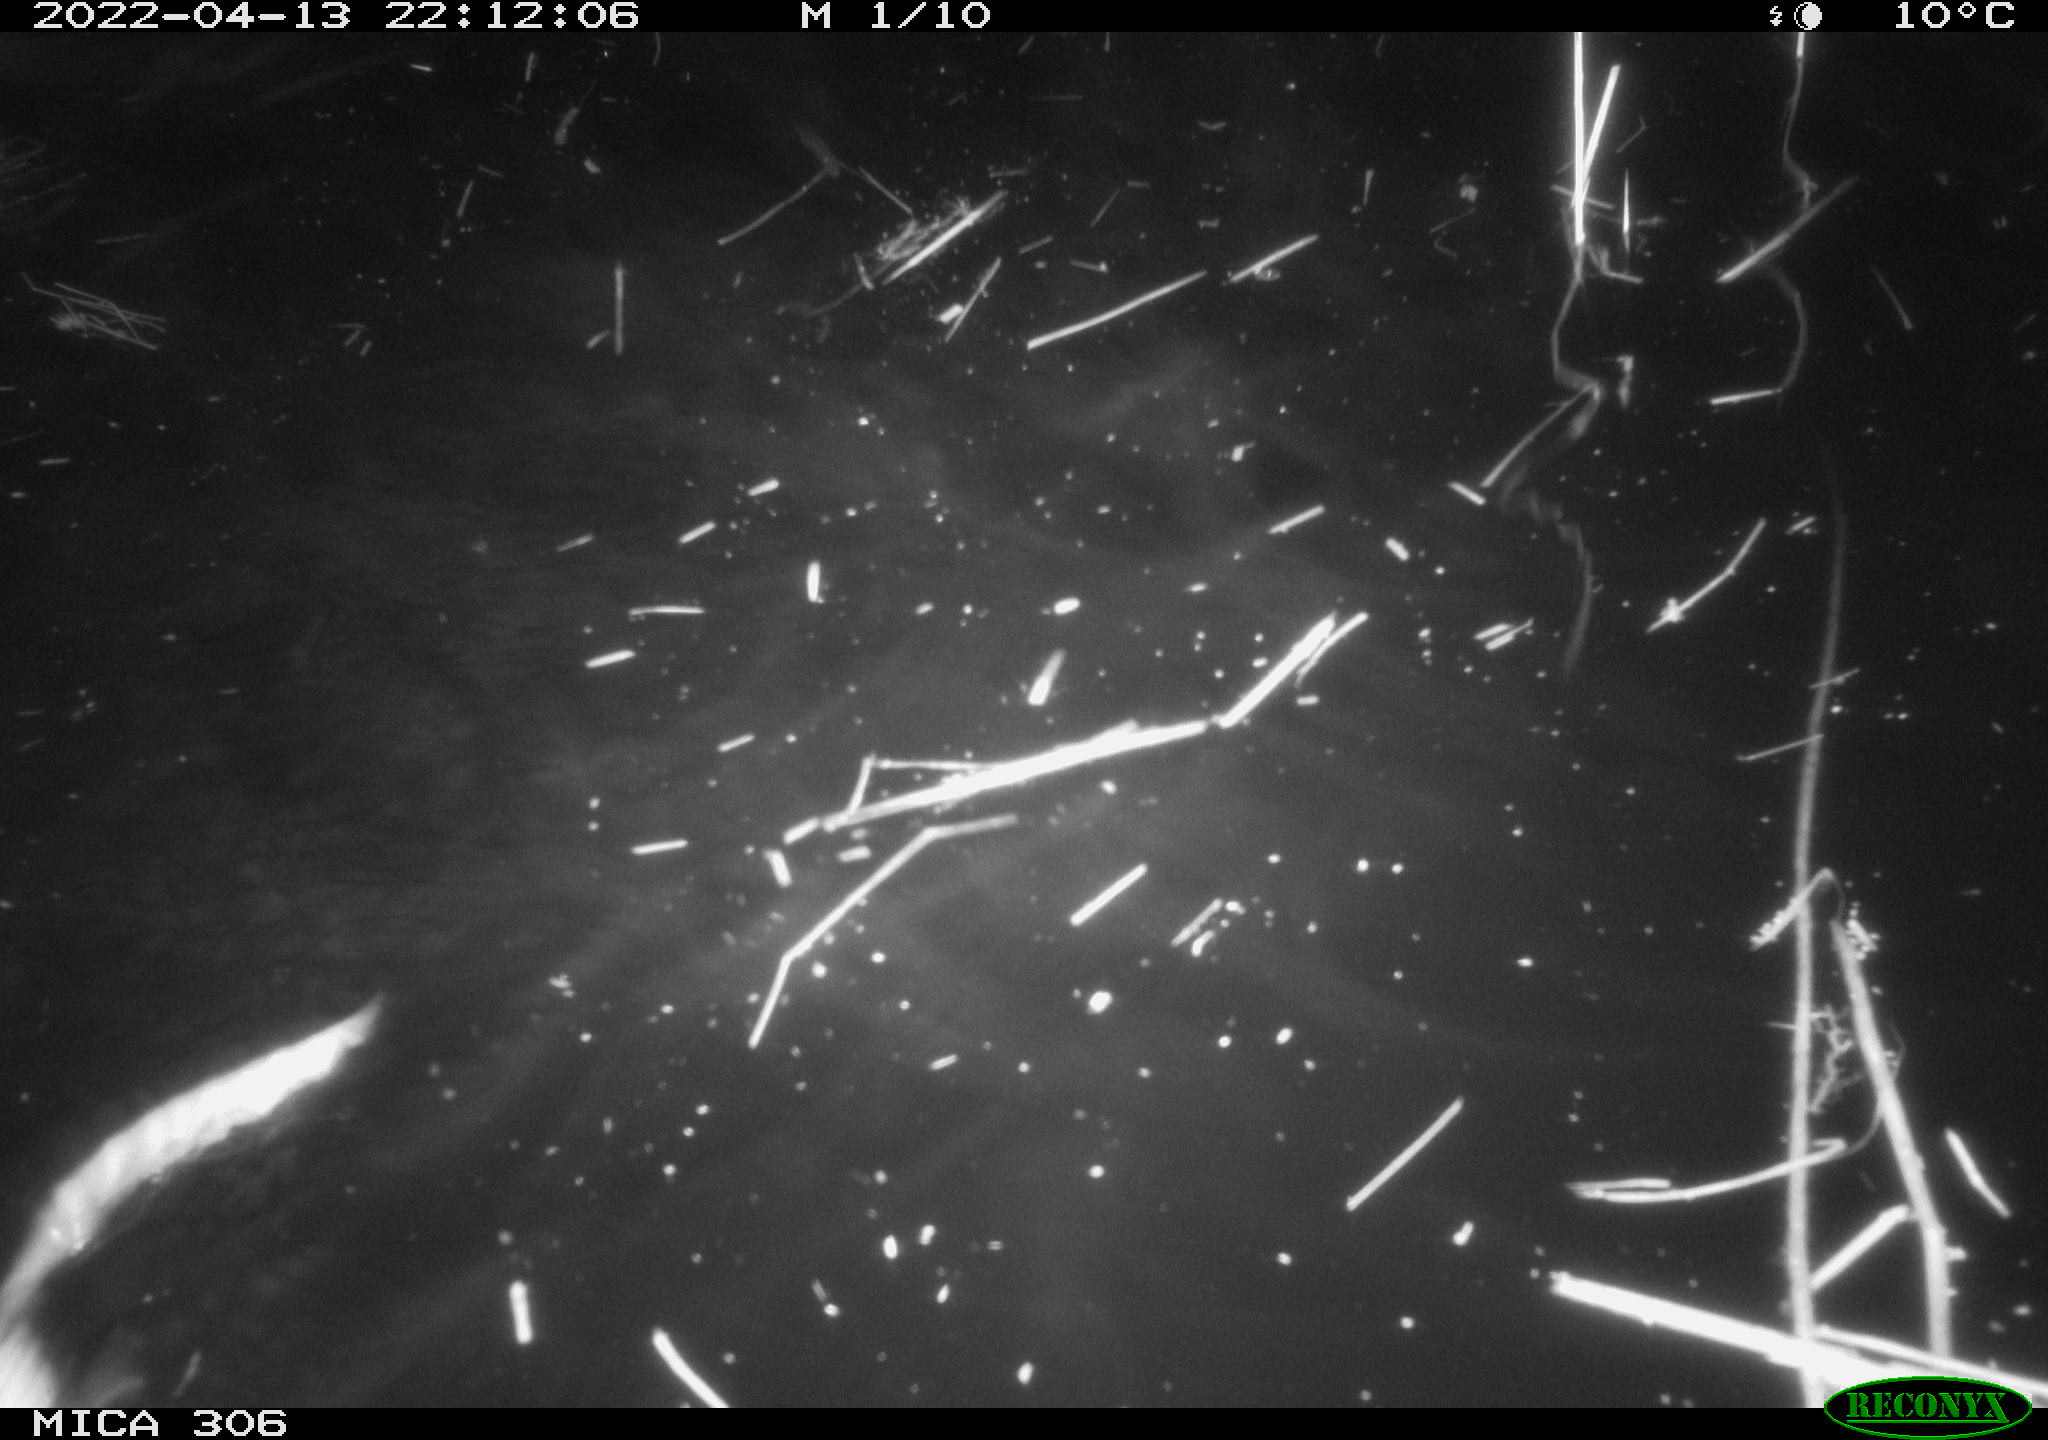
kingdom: Animalia
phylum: Chordata
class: Mammalia
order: Rodentia
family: Cricetidae
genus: Ondatra
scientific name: Ondatra zibethicus
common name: Muskrat
